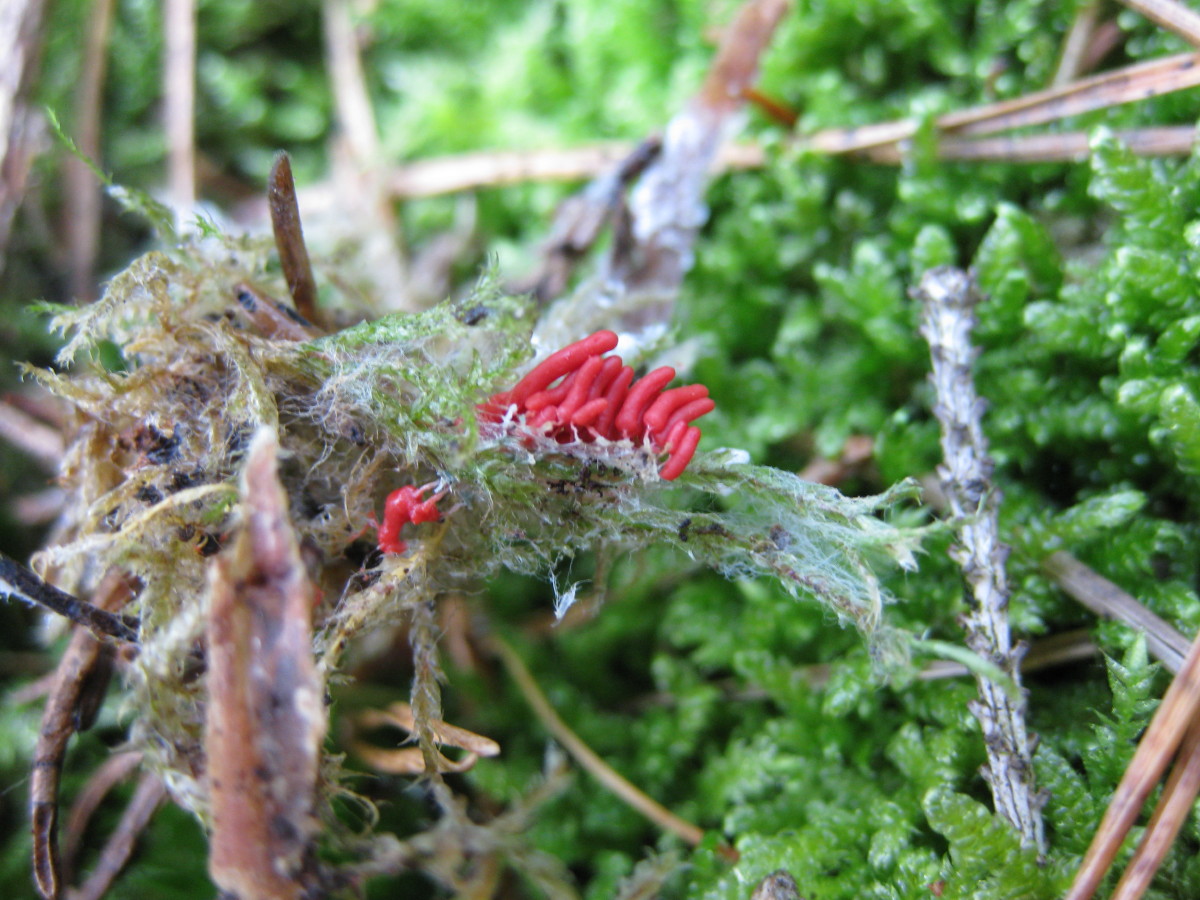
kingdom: Protozoa
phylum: Mycetozoa
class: Myxomycetes
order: Trichiales
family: Arcyriaceae
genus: Arcyria
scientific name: Arcyria denudata
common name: karminrød skålsvøb
